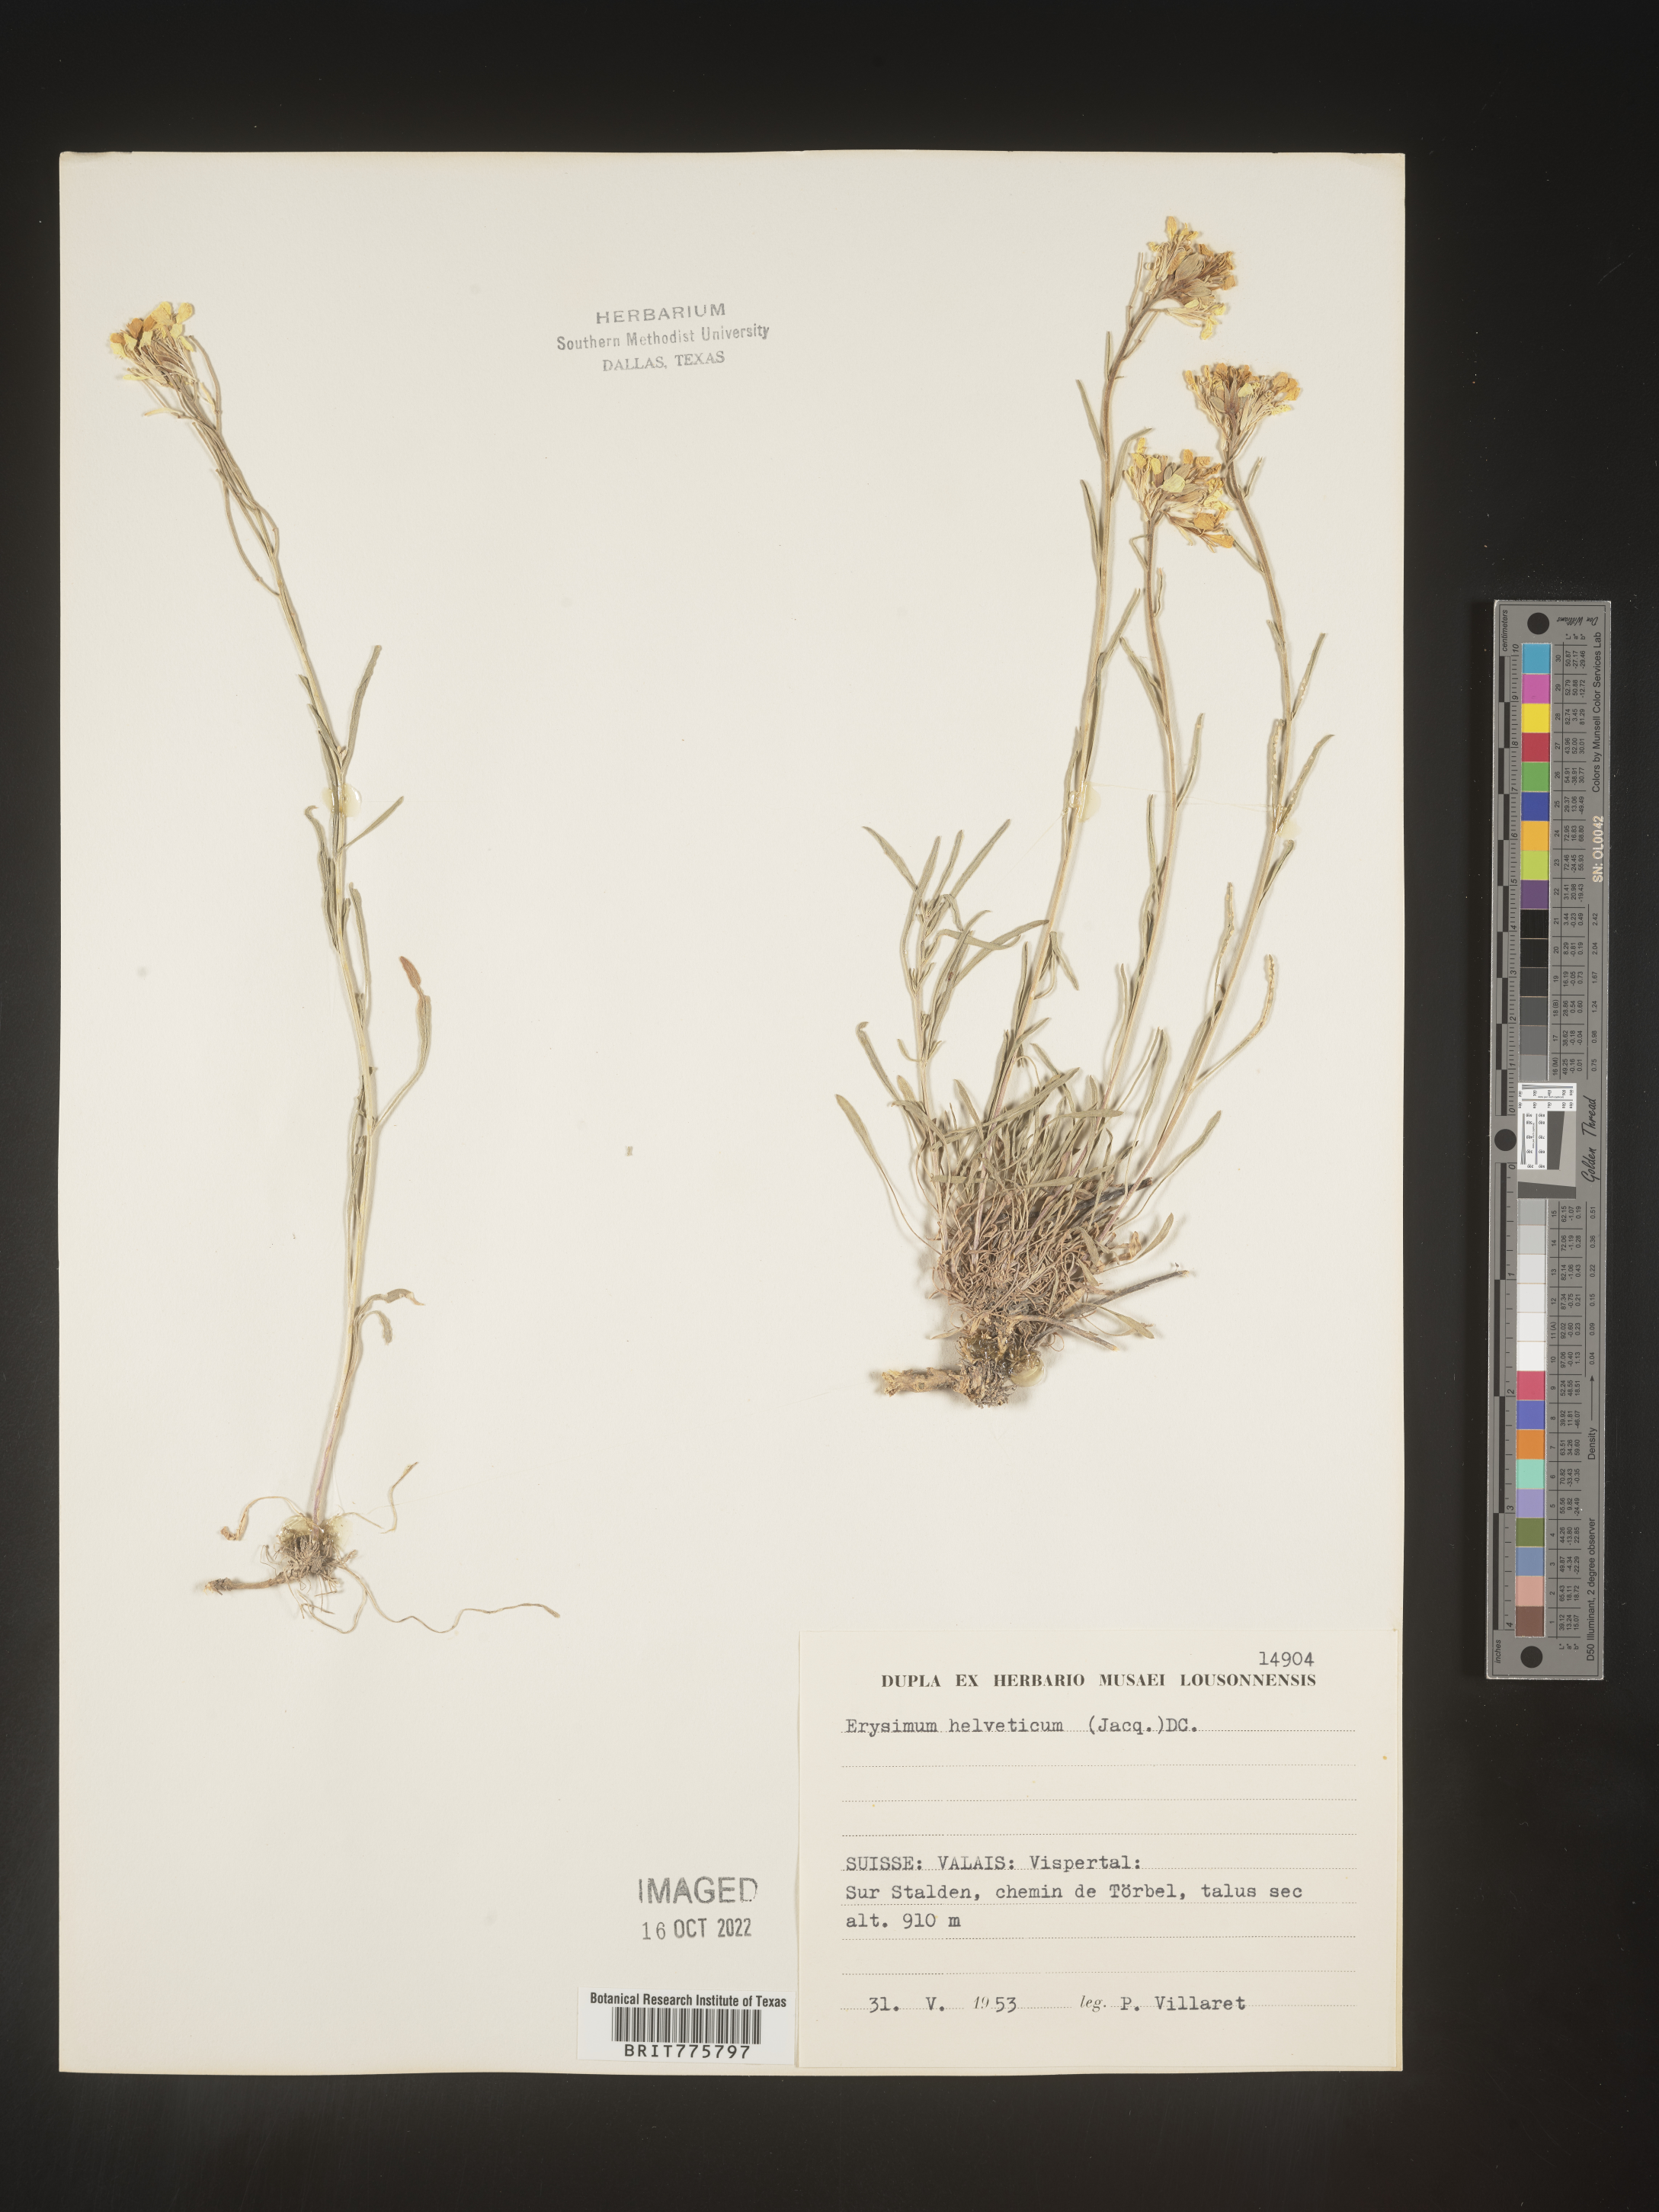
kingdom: Plantae
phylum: Tracheophyta
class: Magnoliopsida
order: Brassicales
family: Brassicaceae
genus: Erysimum
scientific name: Erysimum
